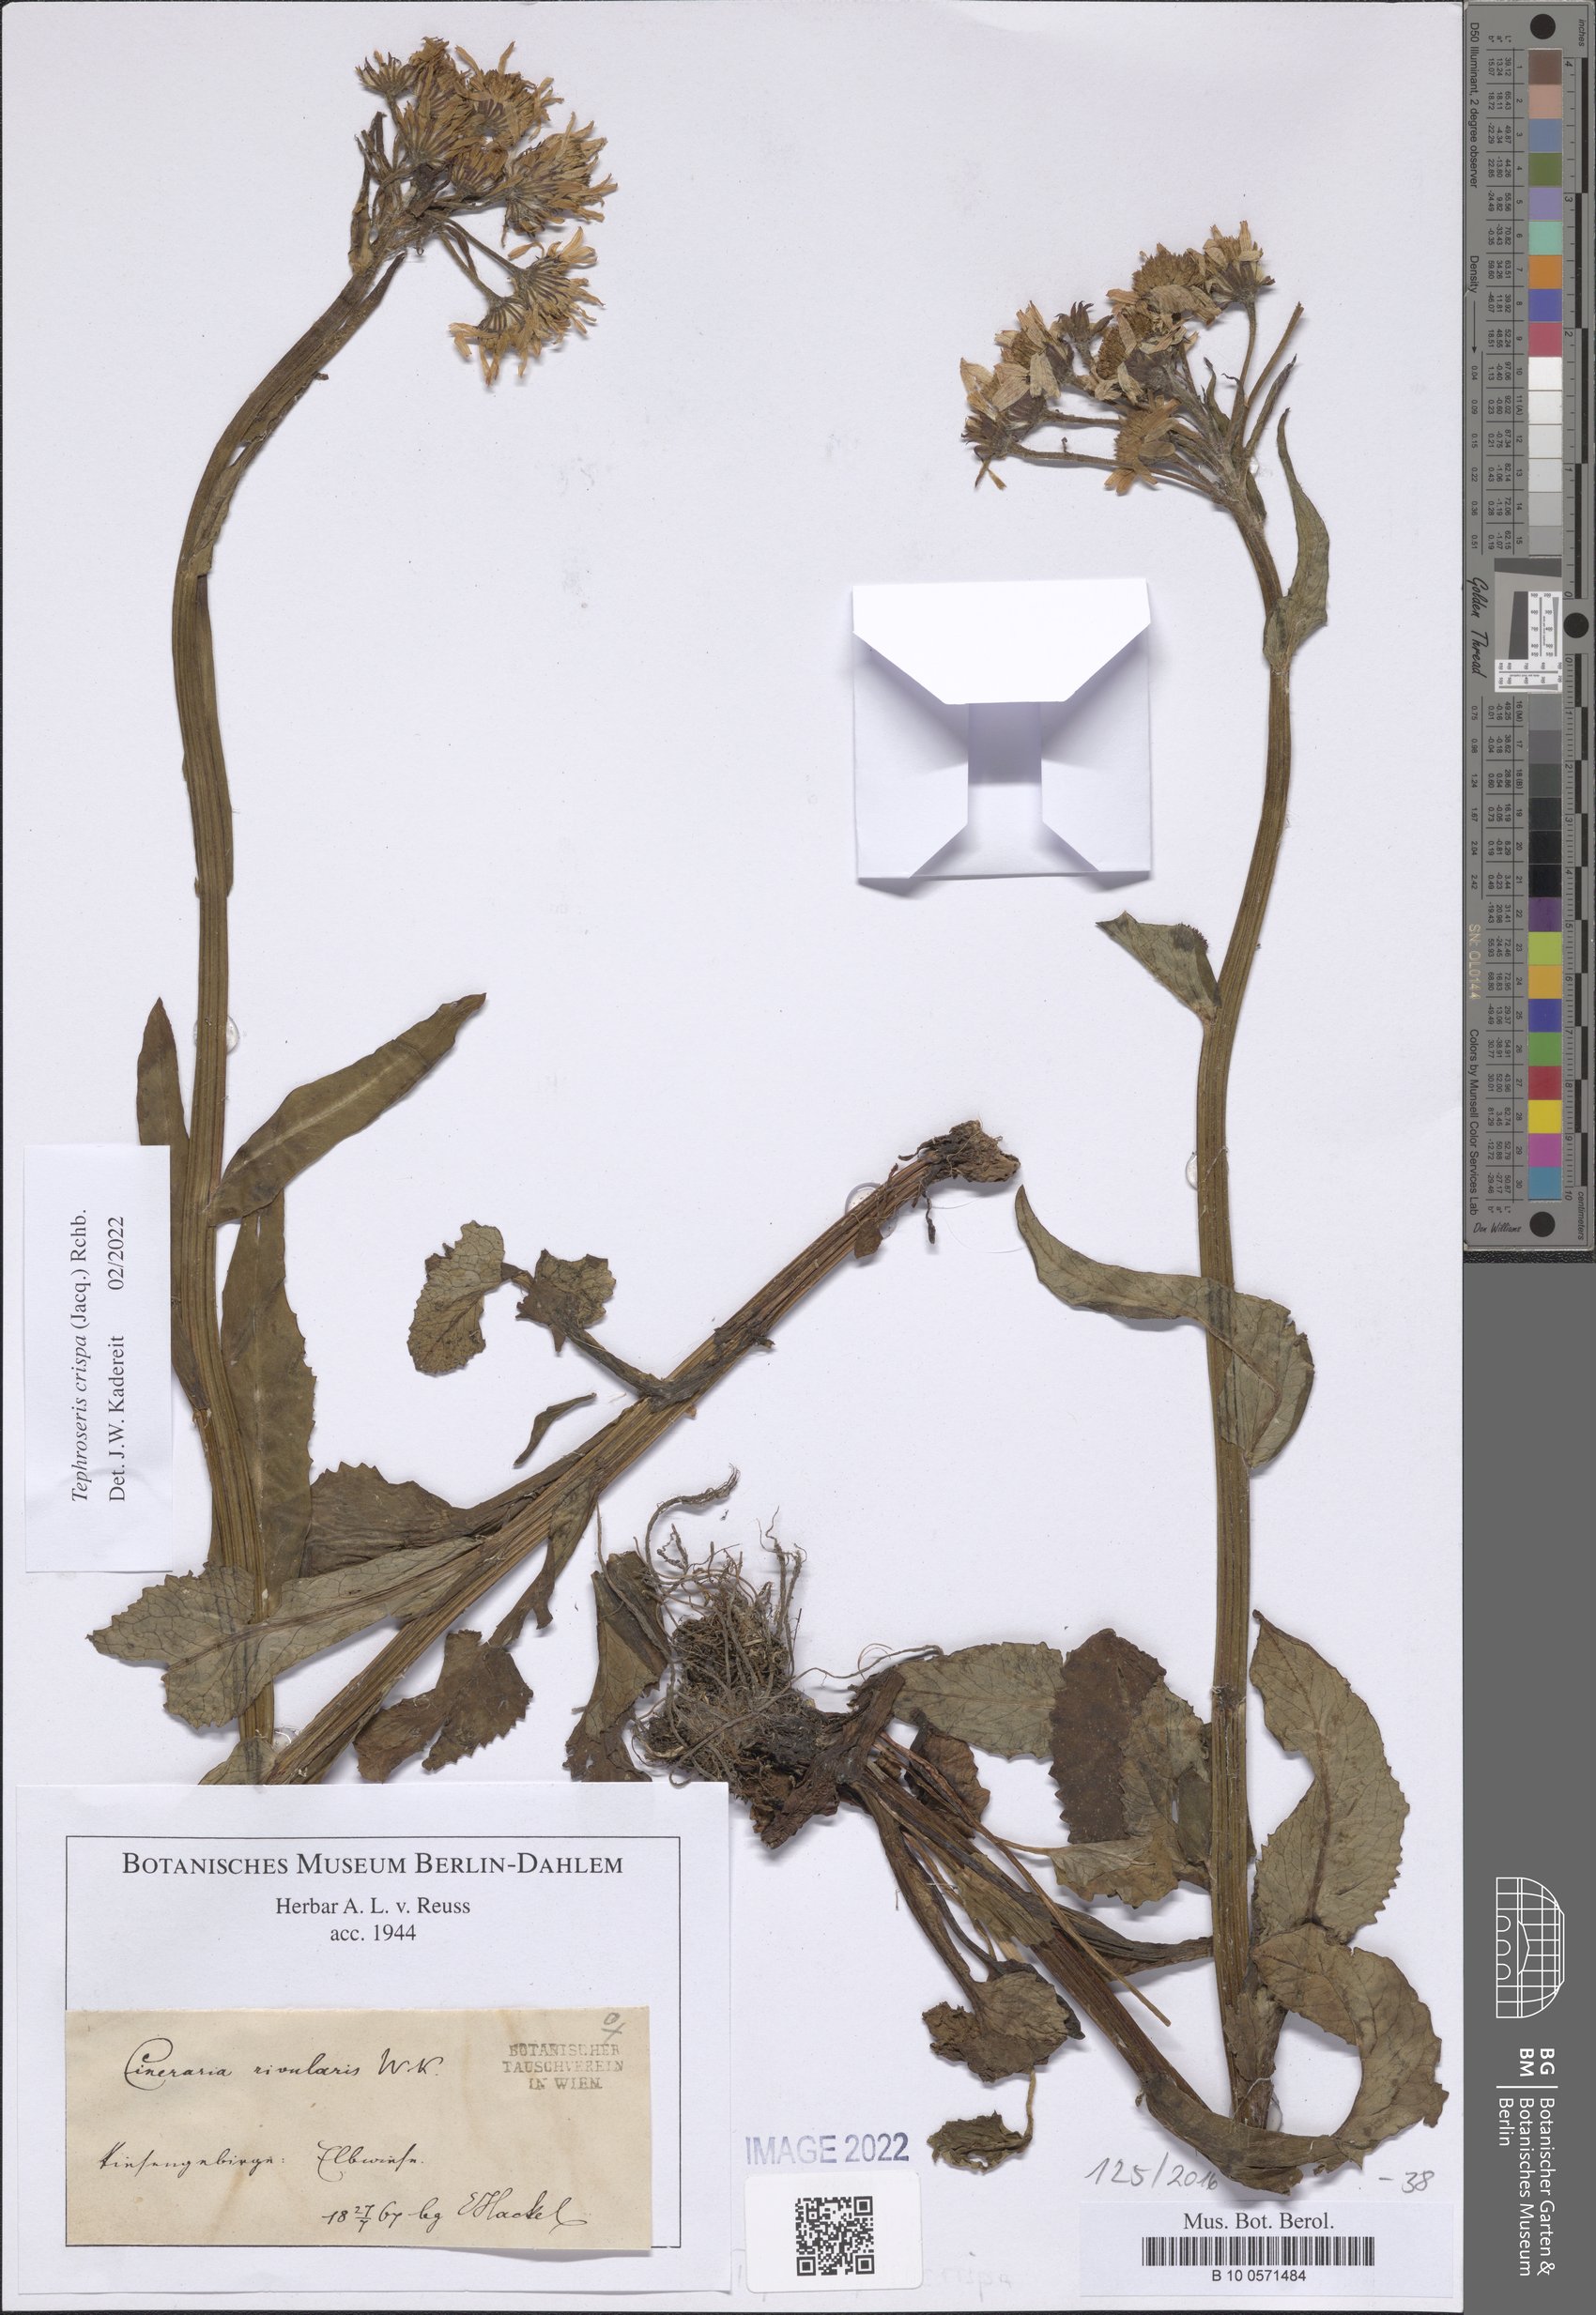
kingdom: Plantae
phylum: Tracheophyta
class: Magnoliopsida
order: Asterales
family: Asteraceae
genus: Tephroseris
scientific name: Tephroseris crispa
